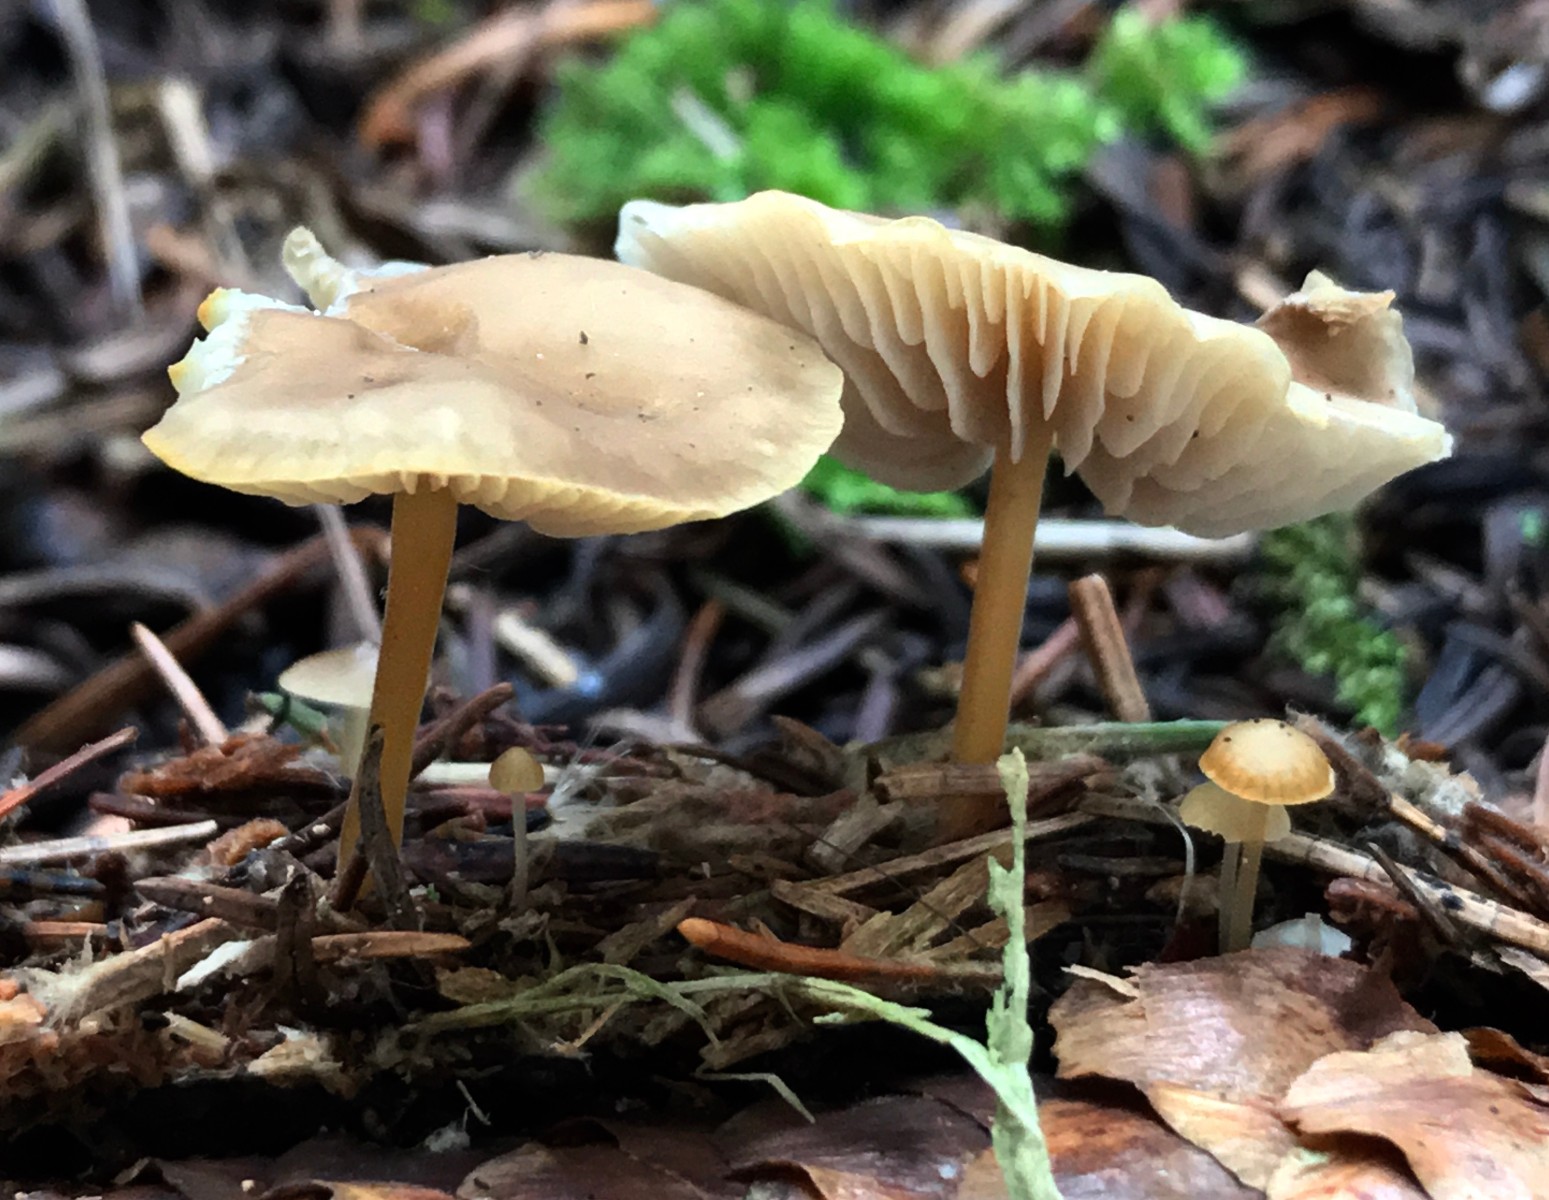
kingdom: Fungi
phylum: Basidiomycota
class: Agaricomycetes
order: Agaricales
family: Physalacriaceae
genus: Strobilurus
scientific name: Strobilurus esculentus
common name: gran-koglehat
